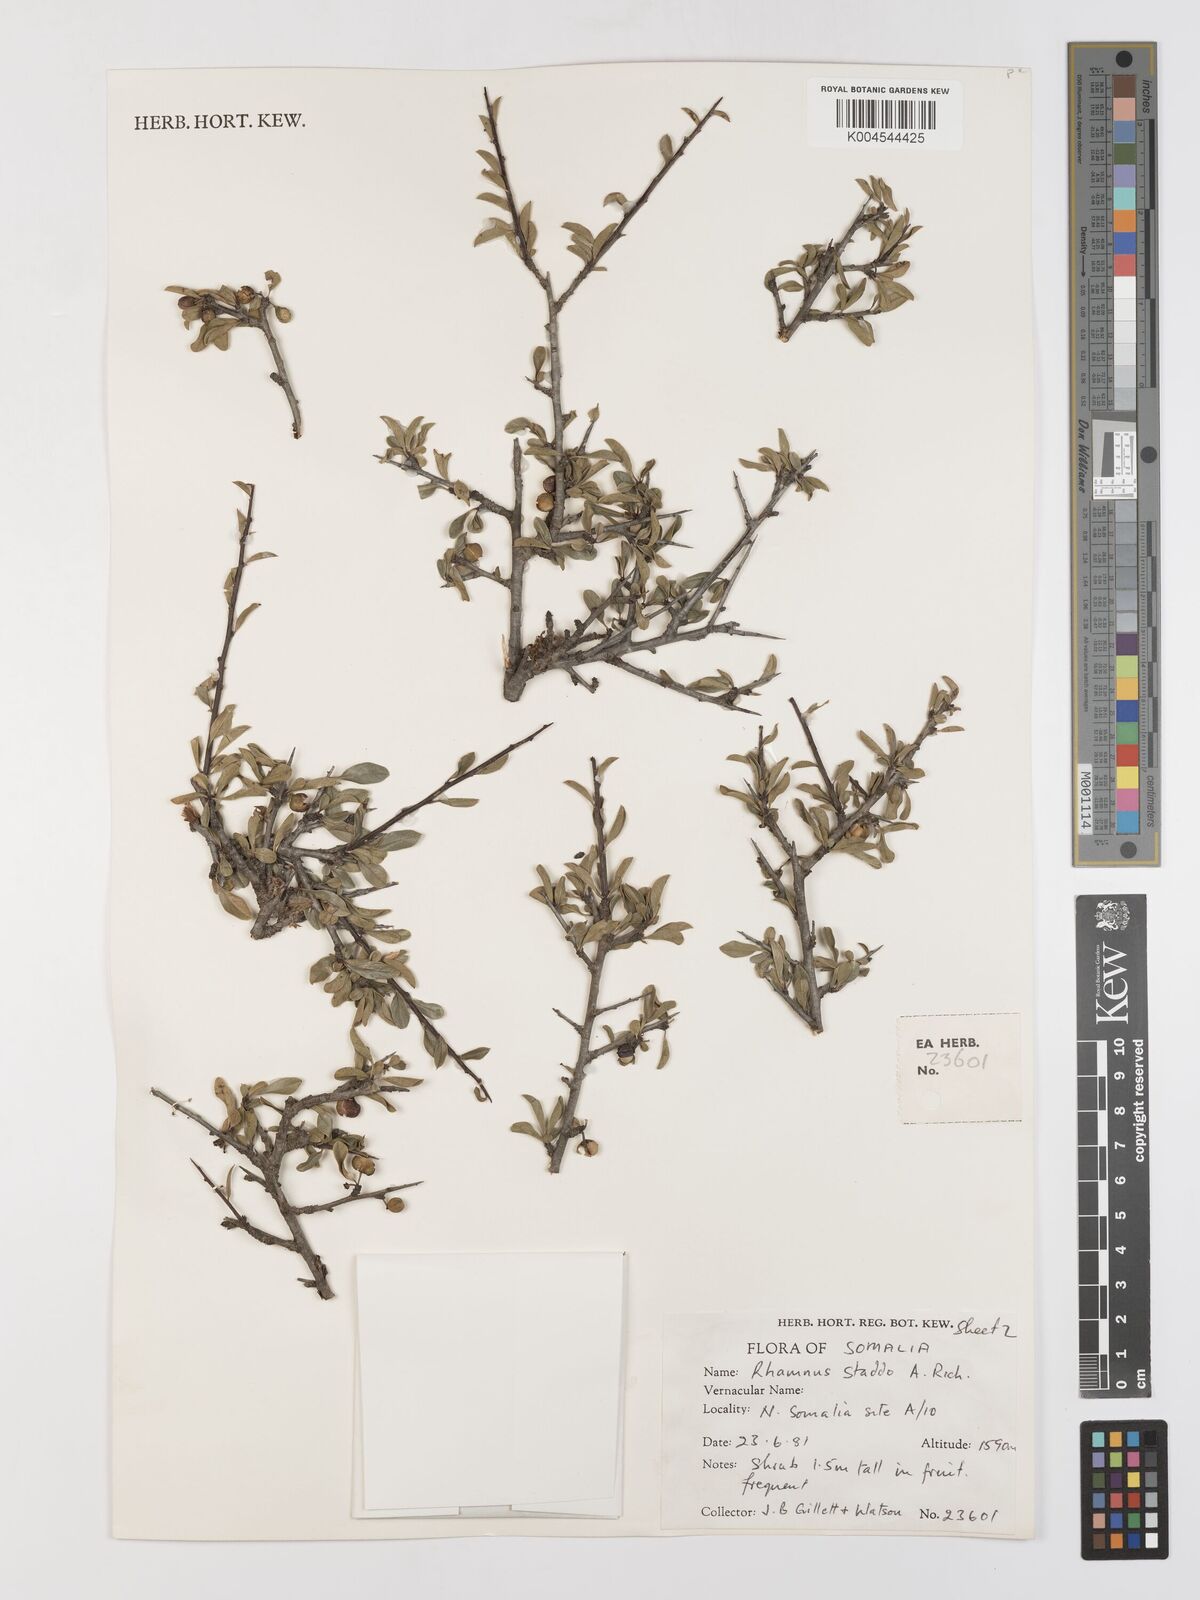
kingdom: Plantae
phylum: Tracheophyta
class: Magnoliopsida
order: Rosales
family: Rhamnaceae
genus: Rhamnus
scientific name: Rhamnus staddo
